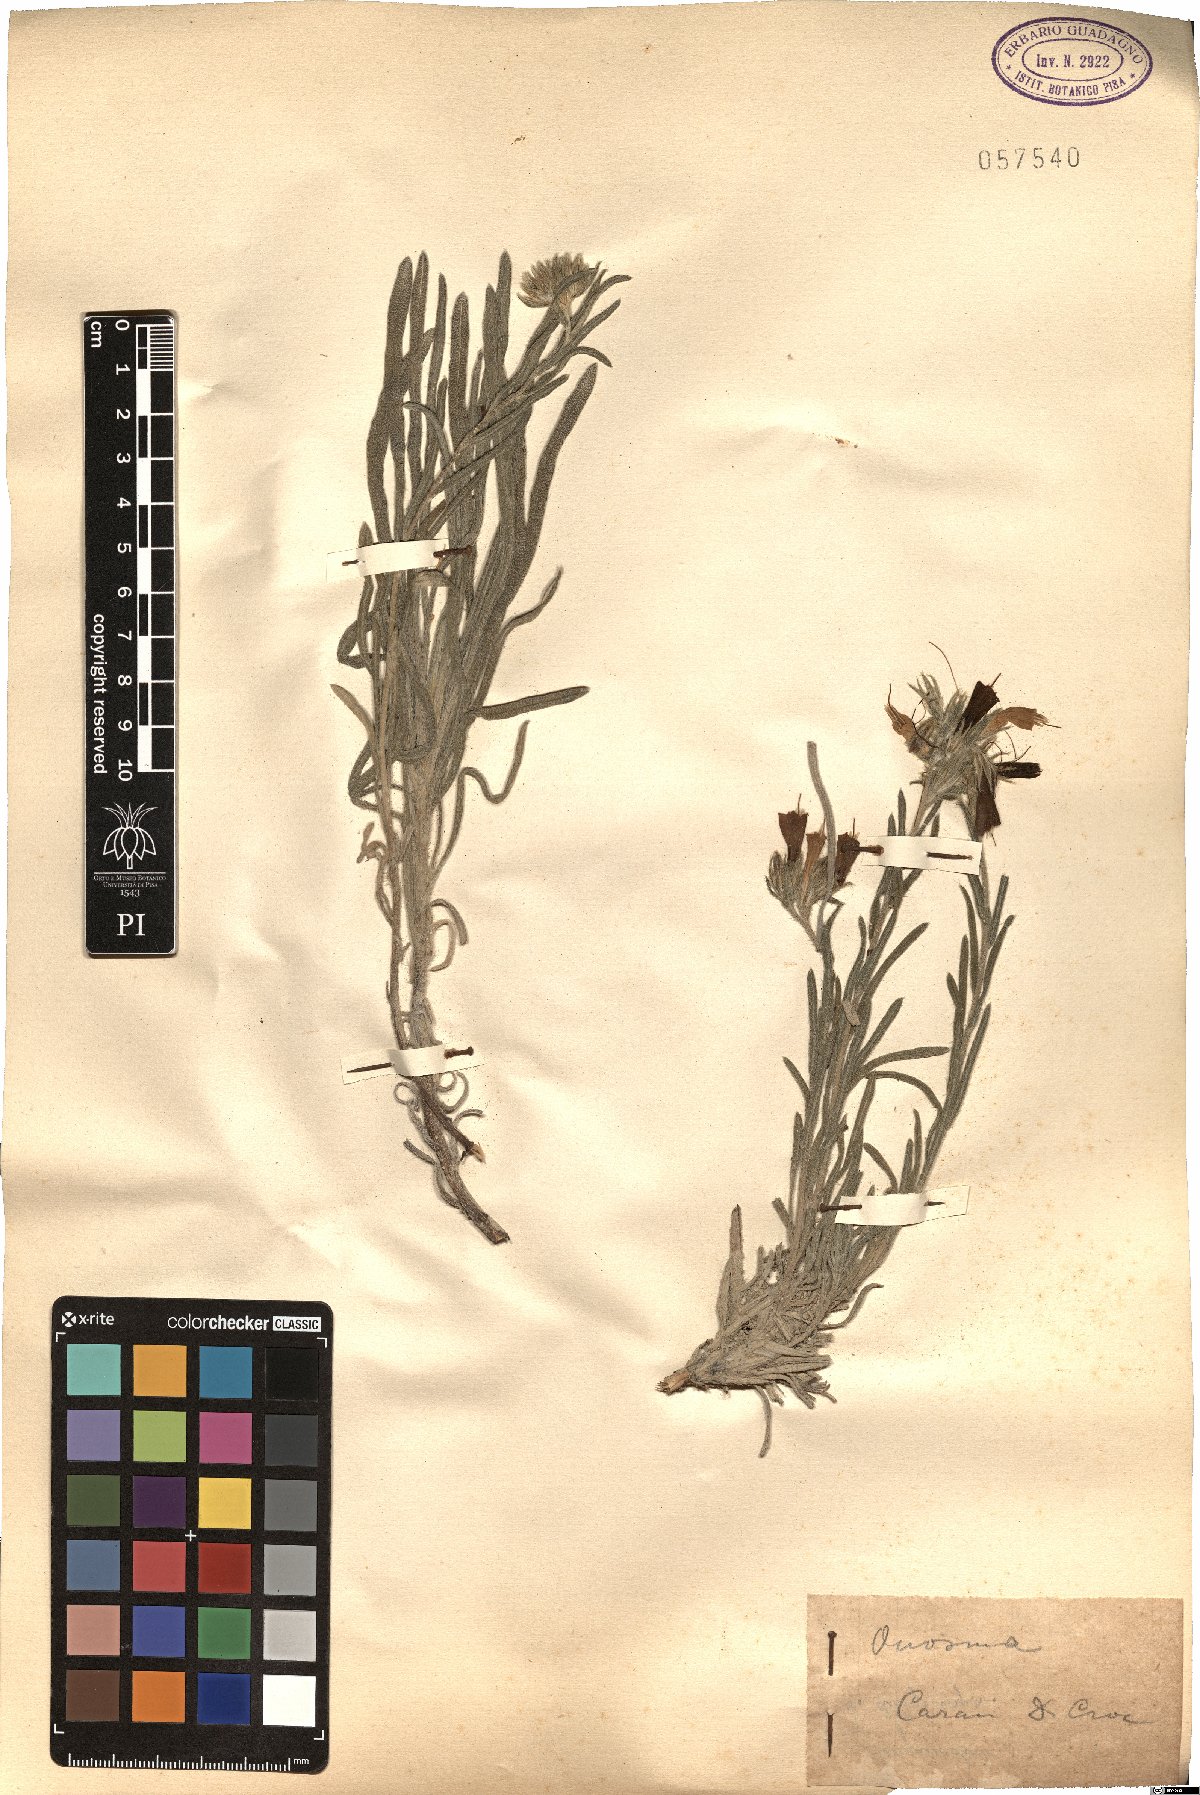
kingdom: Plantae
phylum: Tracheophyta
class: Magnoliopsida
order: Boraginales
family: Boraginaceae
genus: Onosma
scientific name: Onosma
